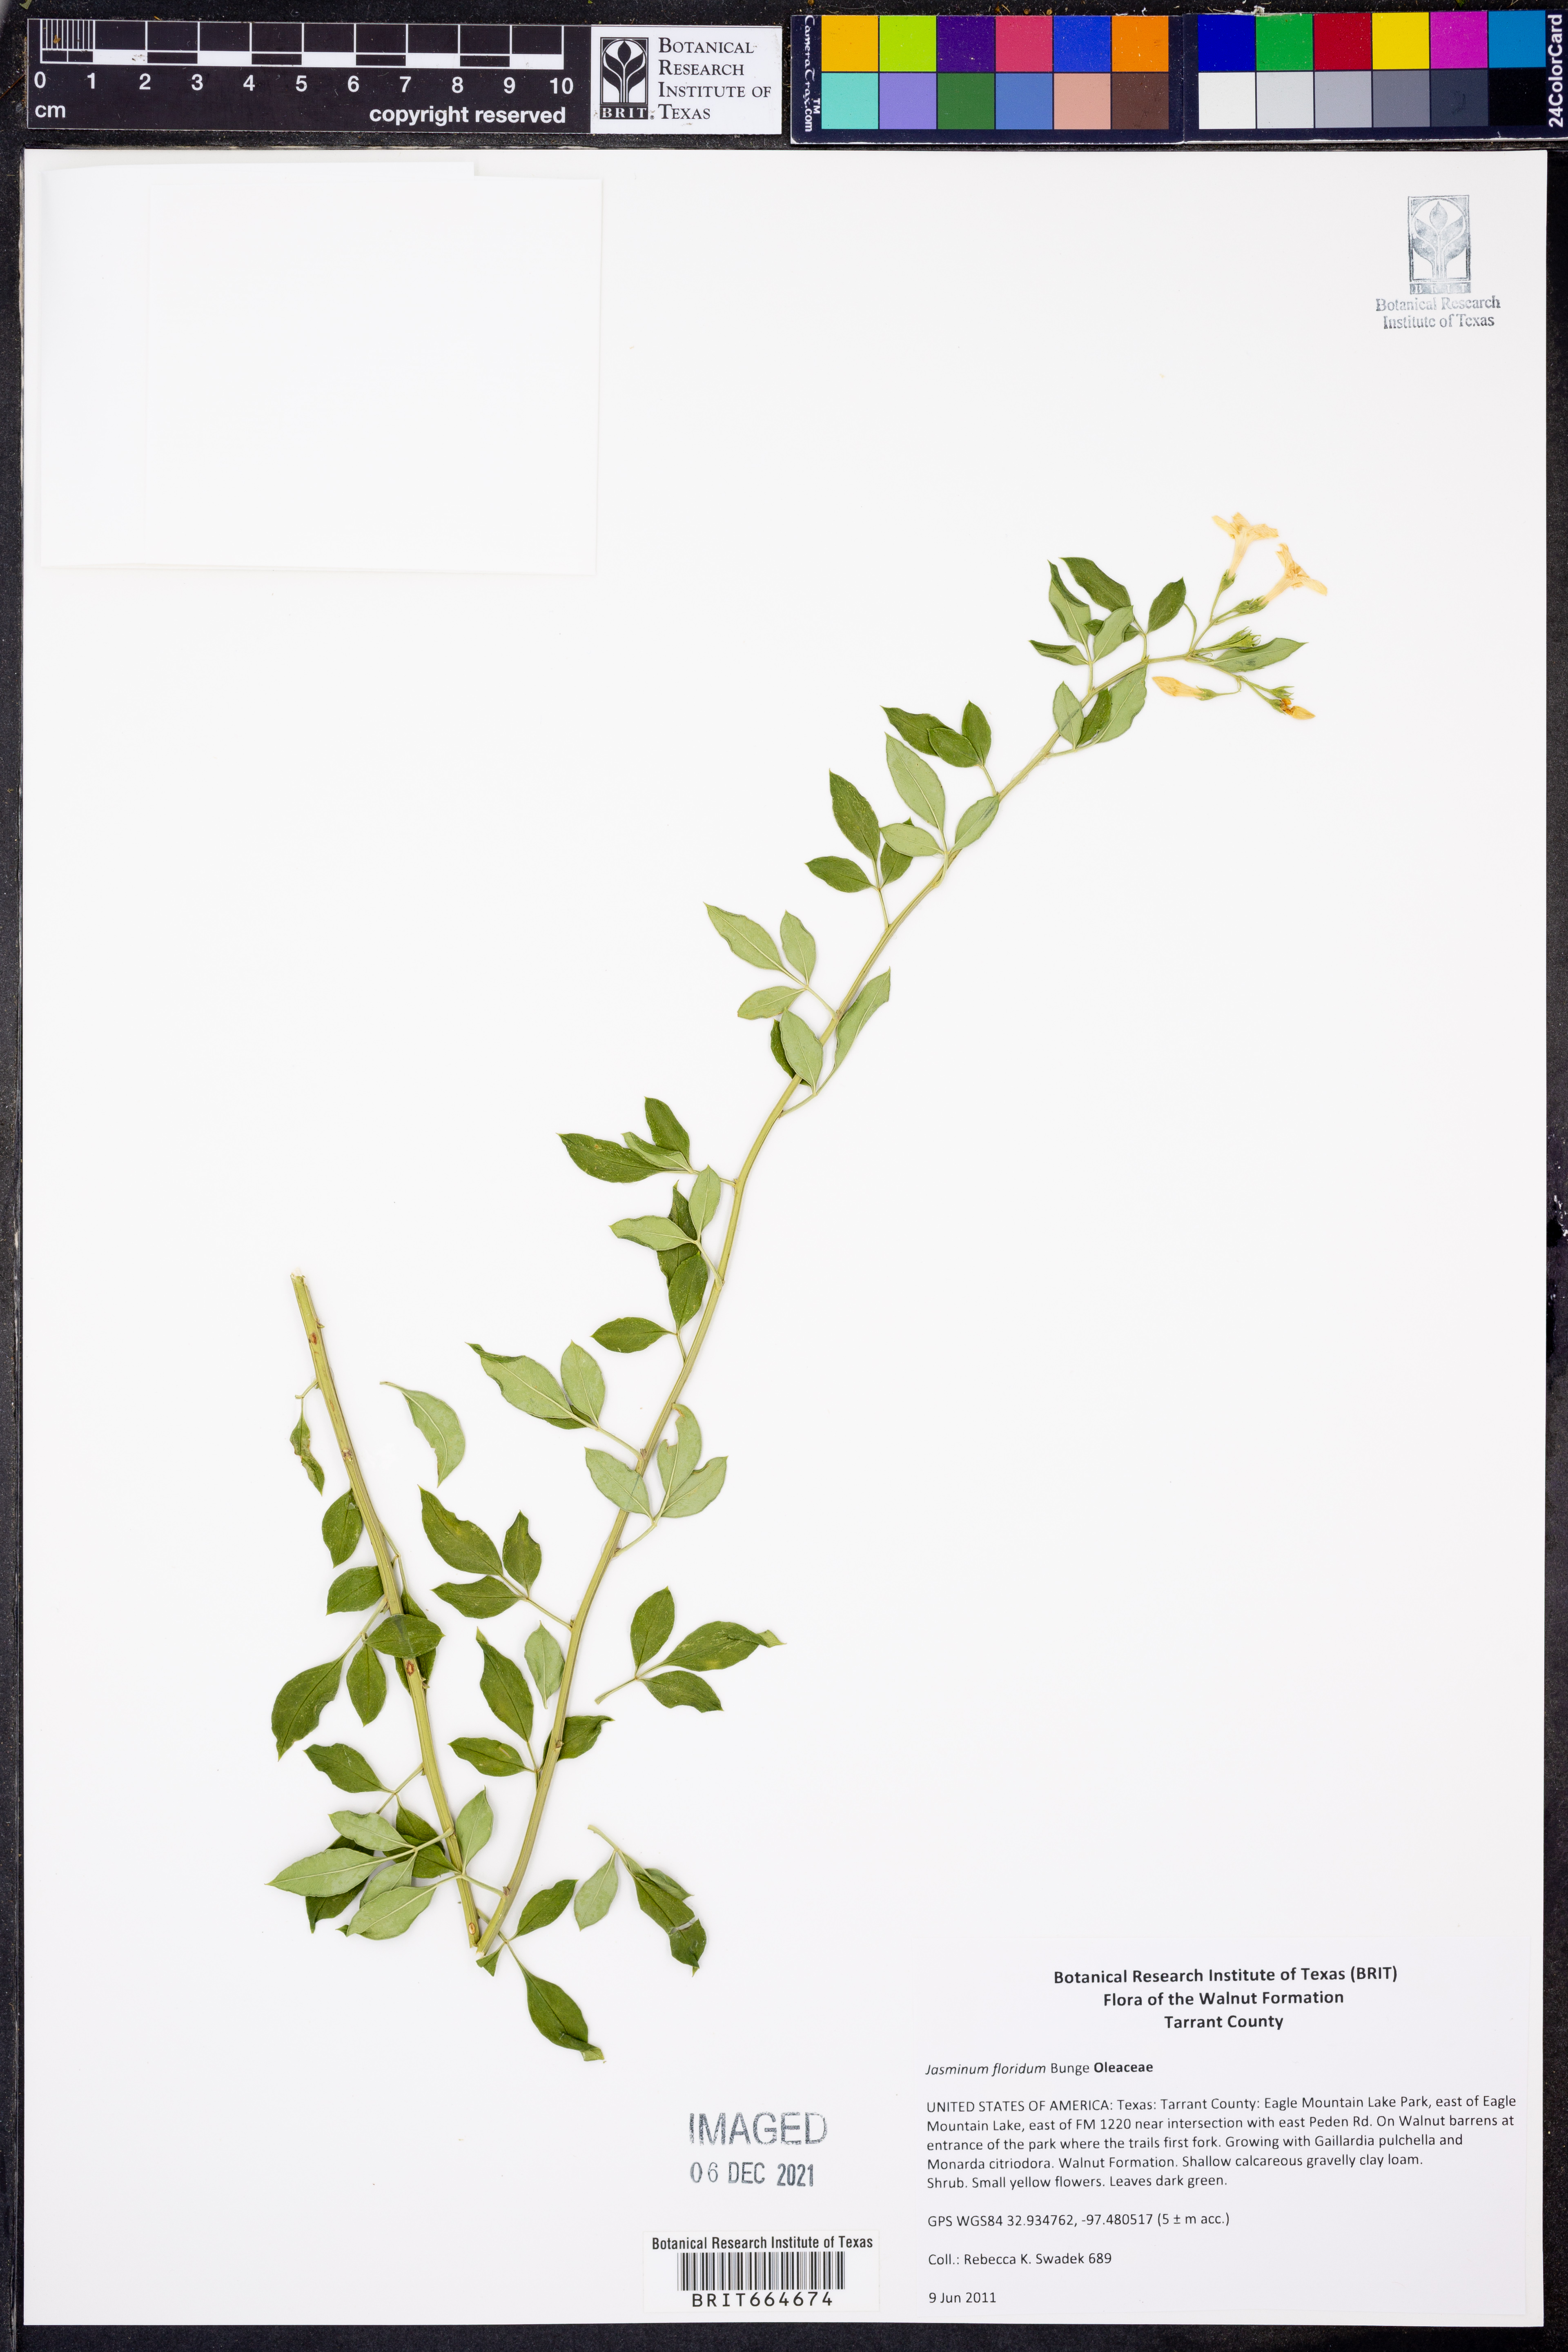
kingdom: Plantae
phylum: Tracheophyta
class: Magnoliopsida
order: Lamiales
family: Oleaceae
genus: Chrysojasminum
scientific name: Chrysojasminum floridum
